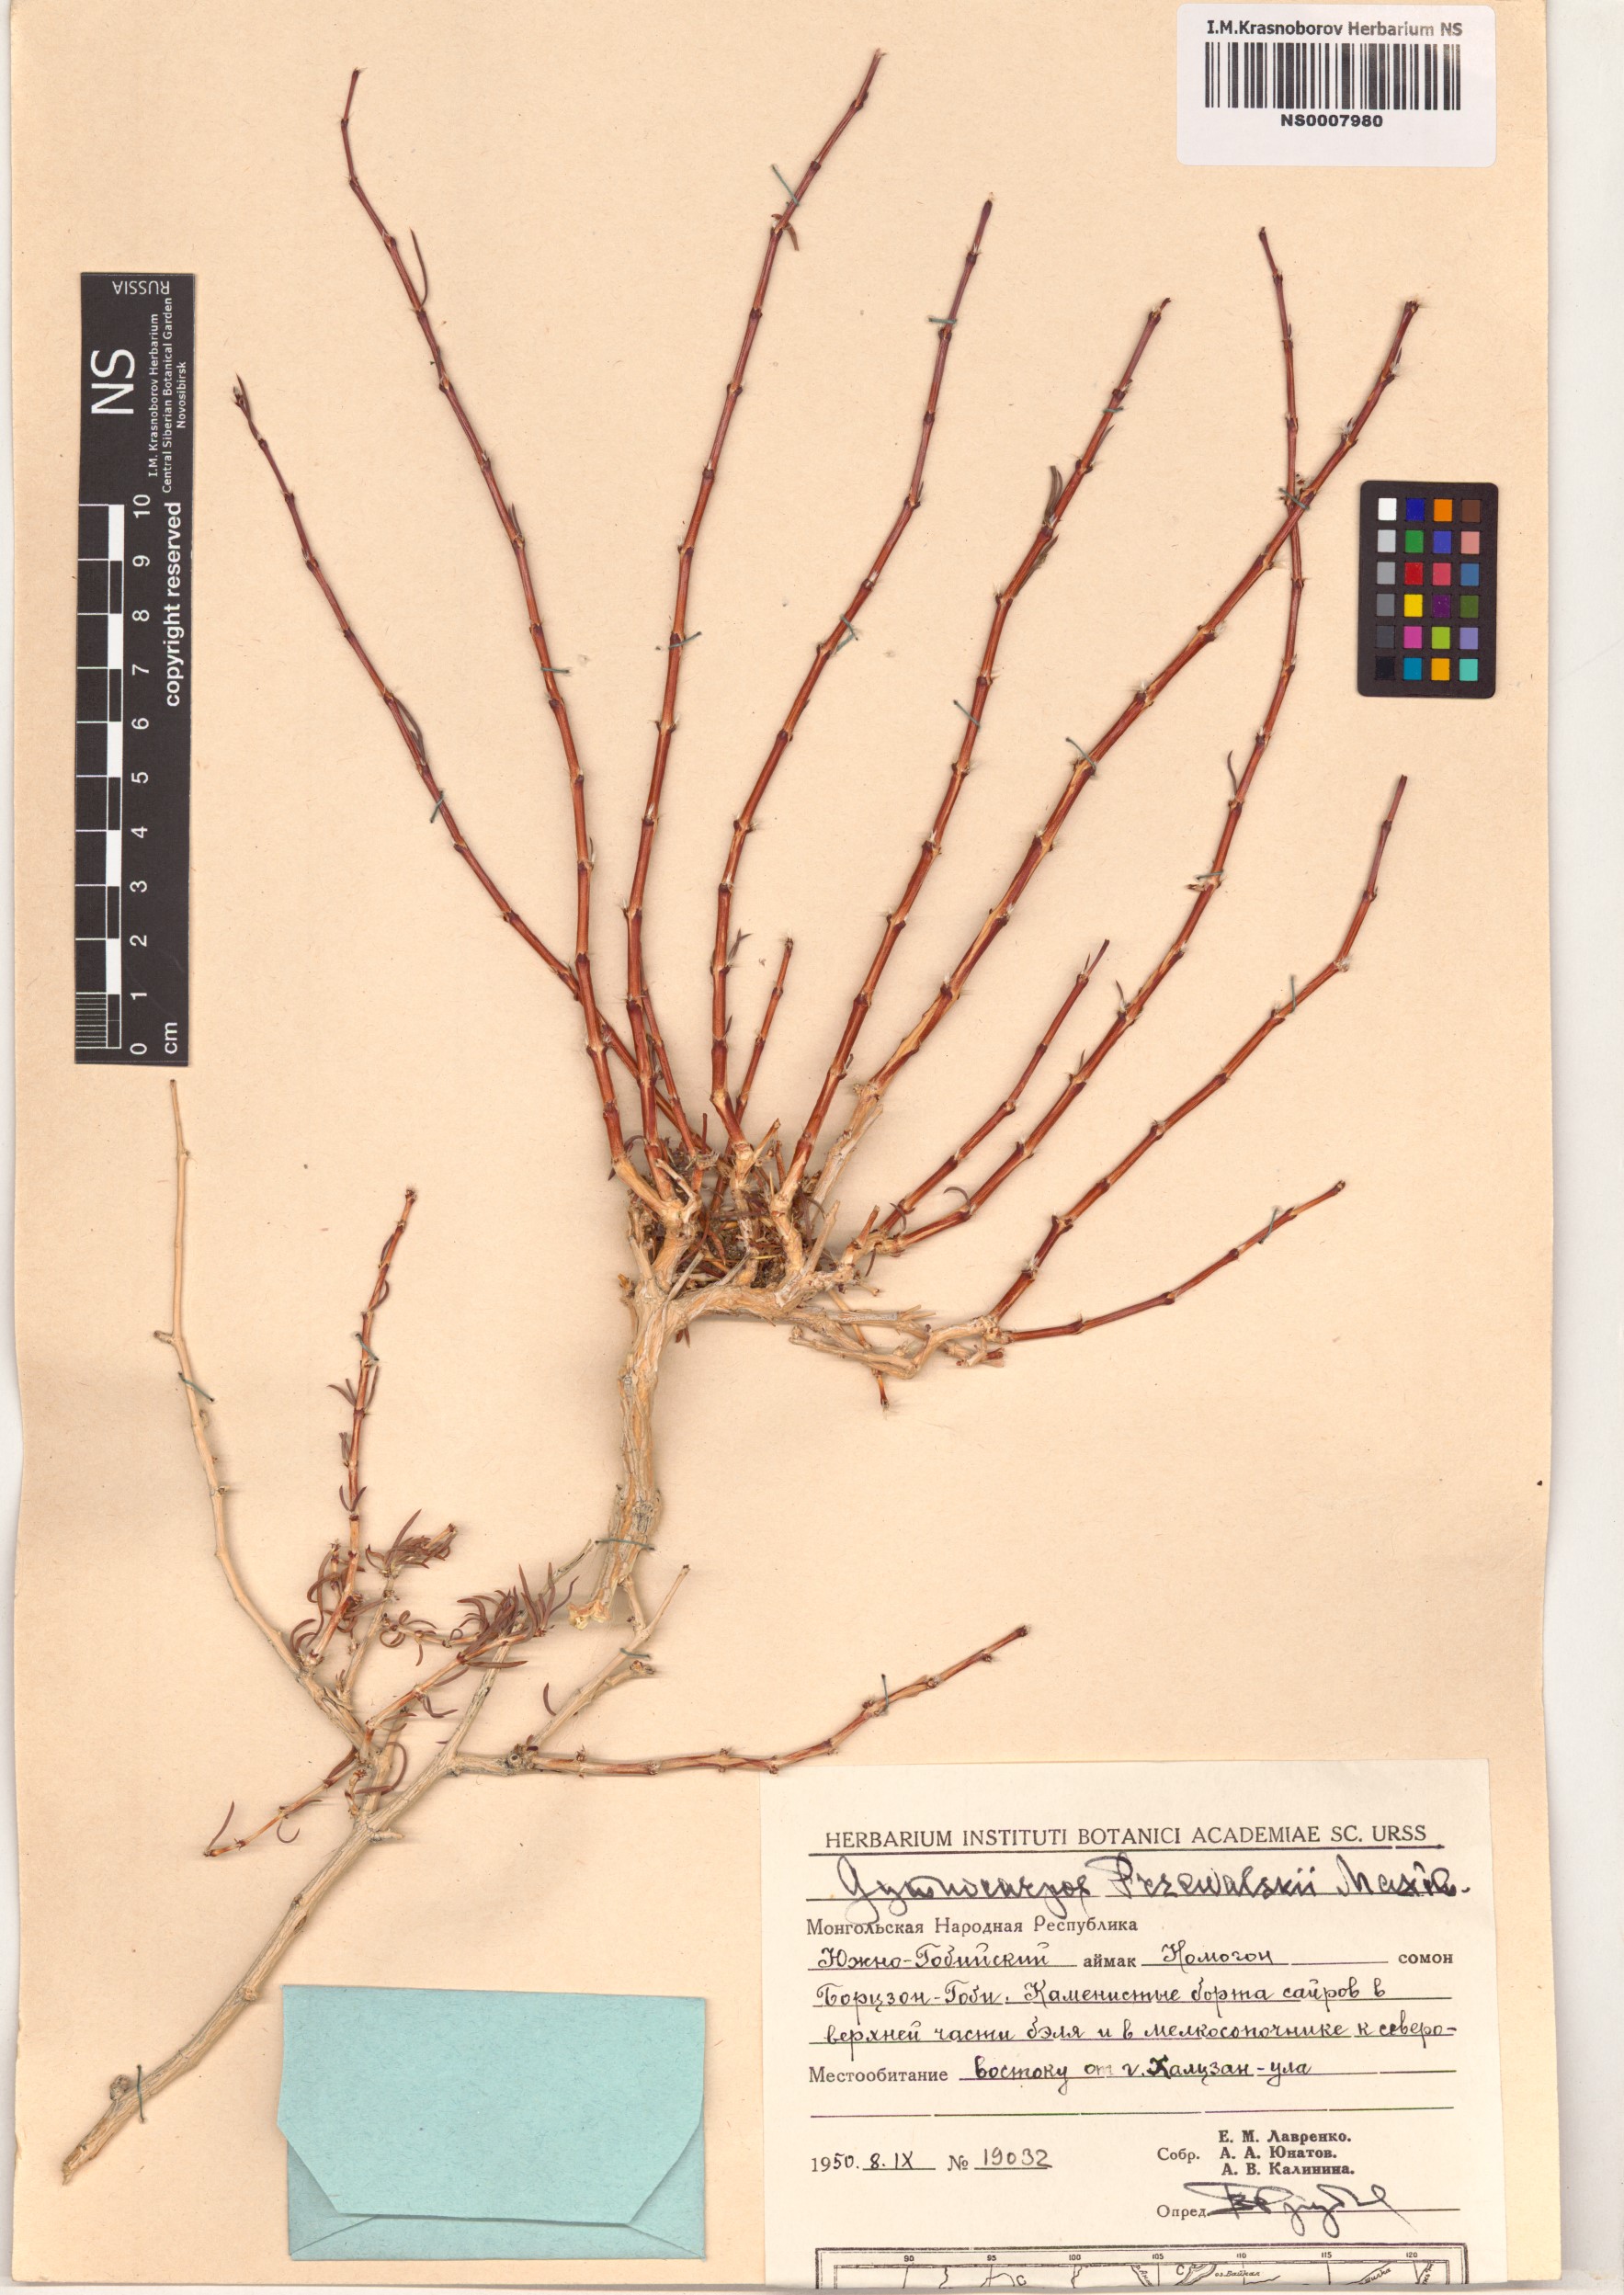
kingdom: Plantae
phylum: Tracheophyta
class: Magnoliopsida
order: Caryophyllales
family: Caryophyllaceae
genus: Gymnocarpos
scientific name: Gymnocarpos przewalskii
